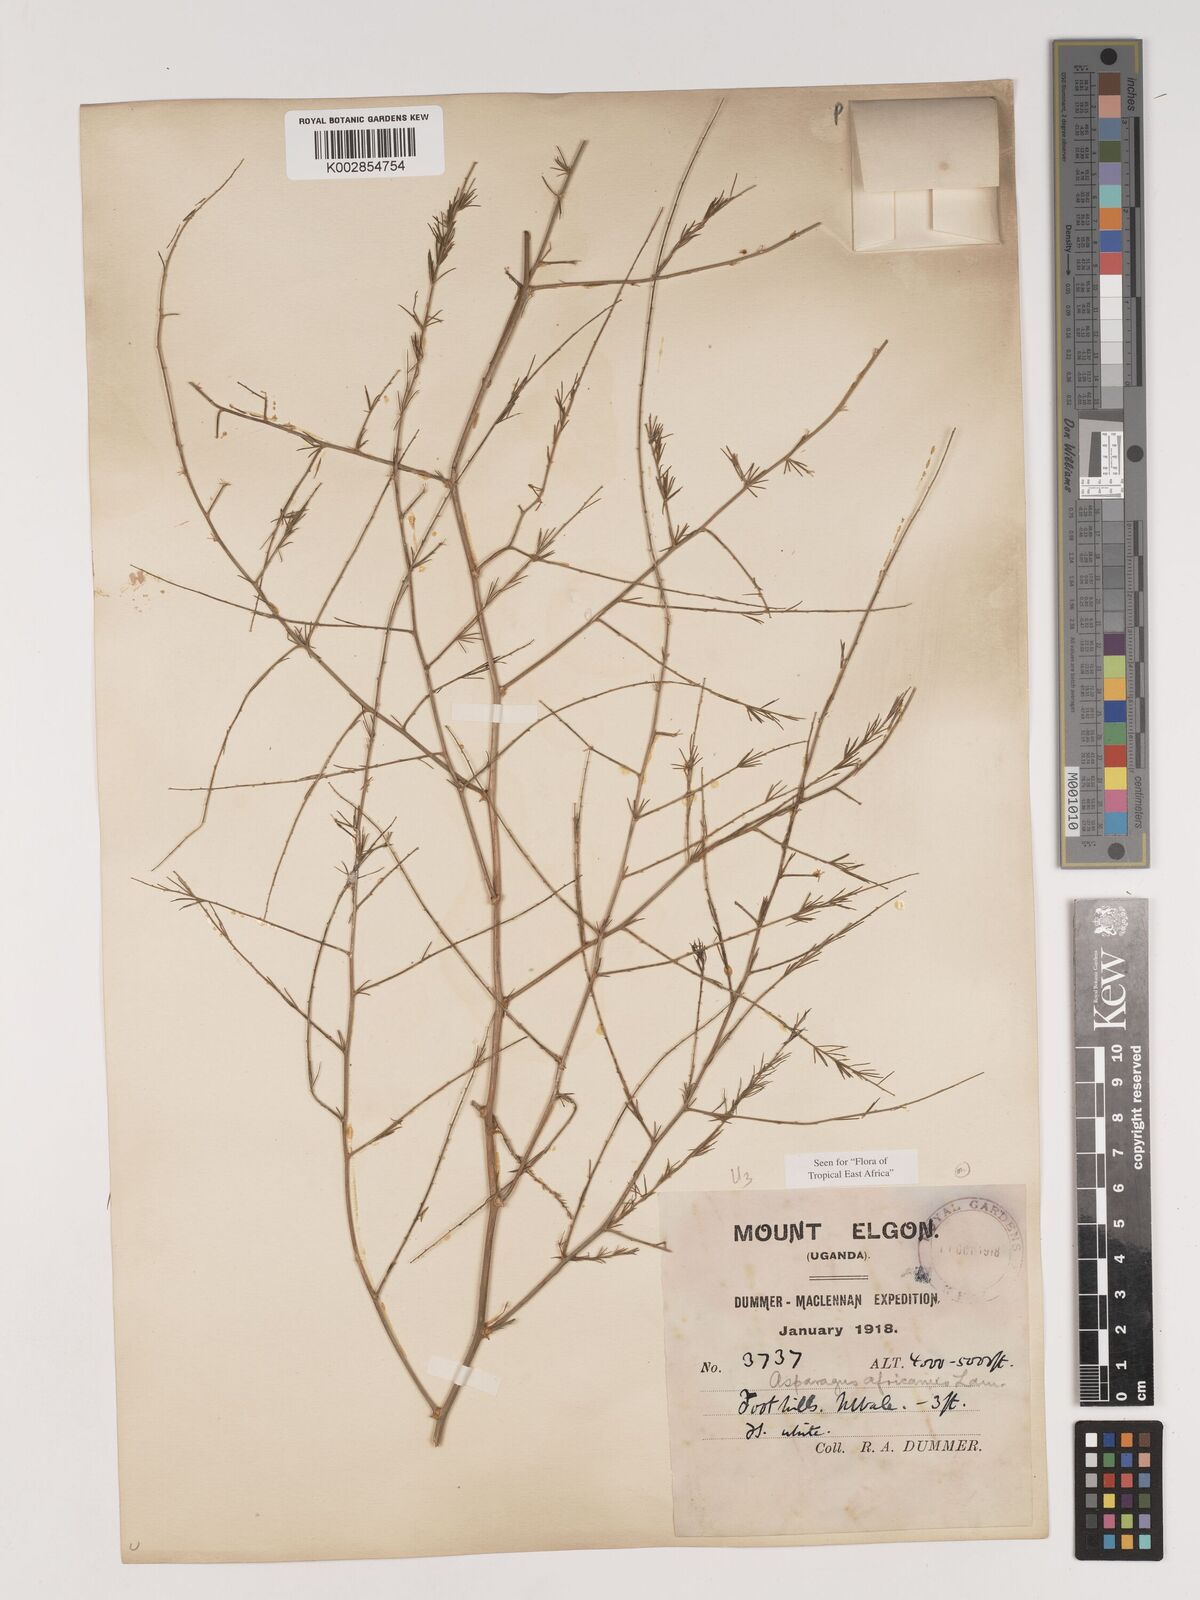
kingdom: Plantae
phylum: Tracheophyta
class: Liliopsida
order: Asparagales
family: Asparagaceae
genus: Asparagus
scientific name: Asparagus africanus
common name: Asparagus-fern
